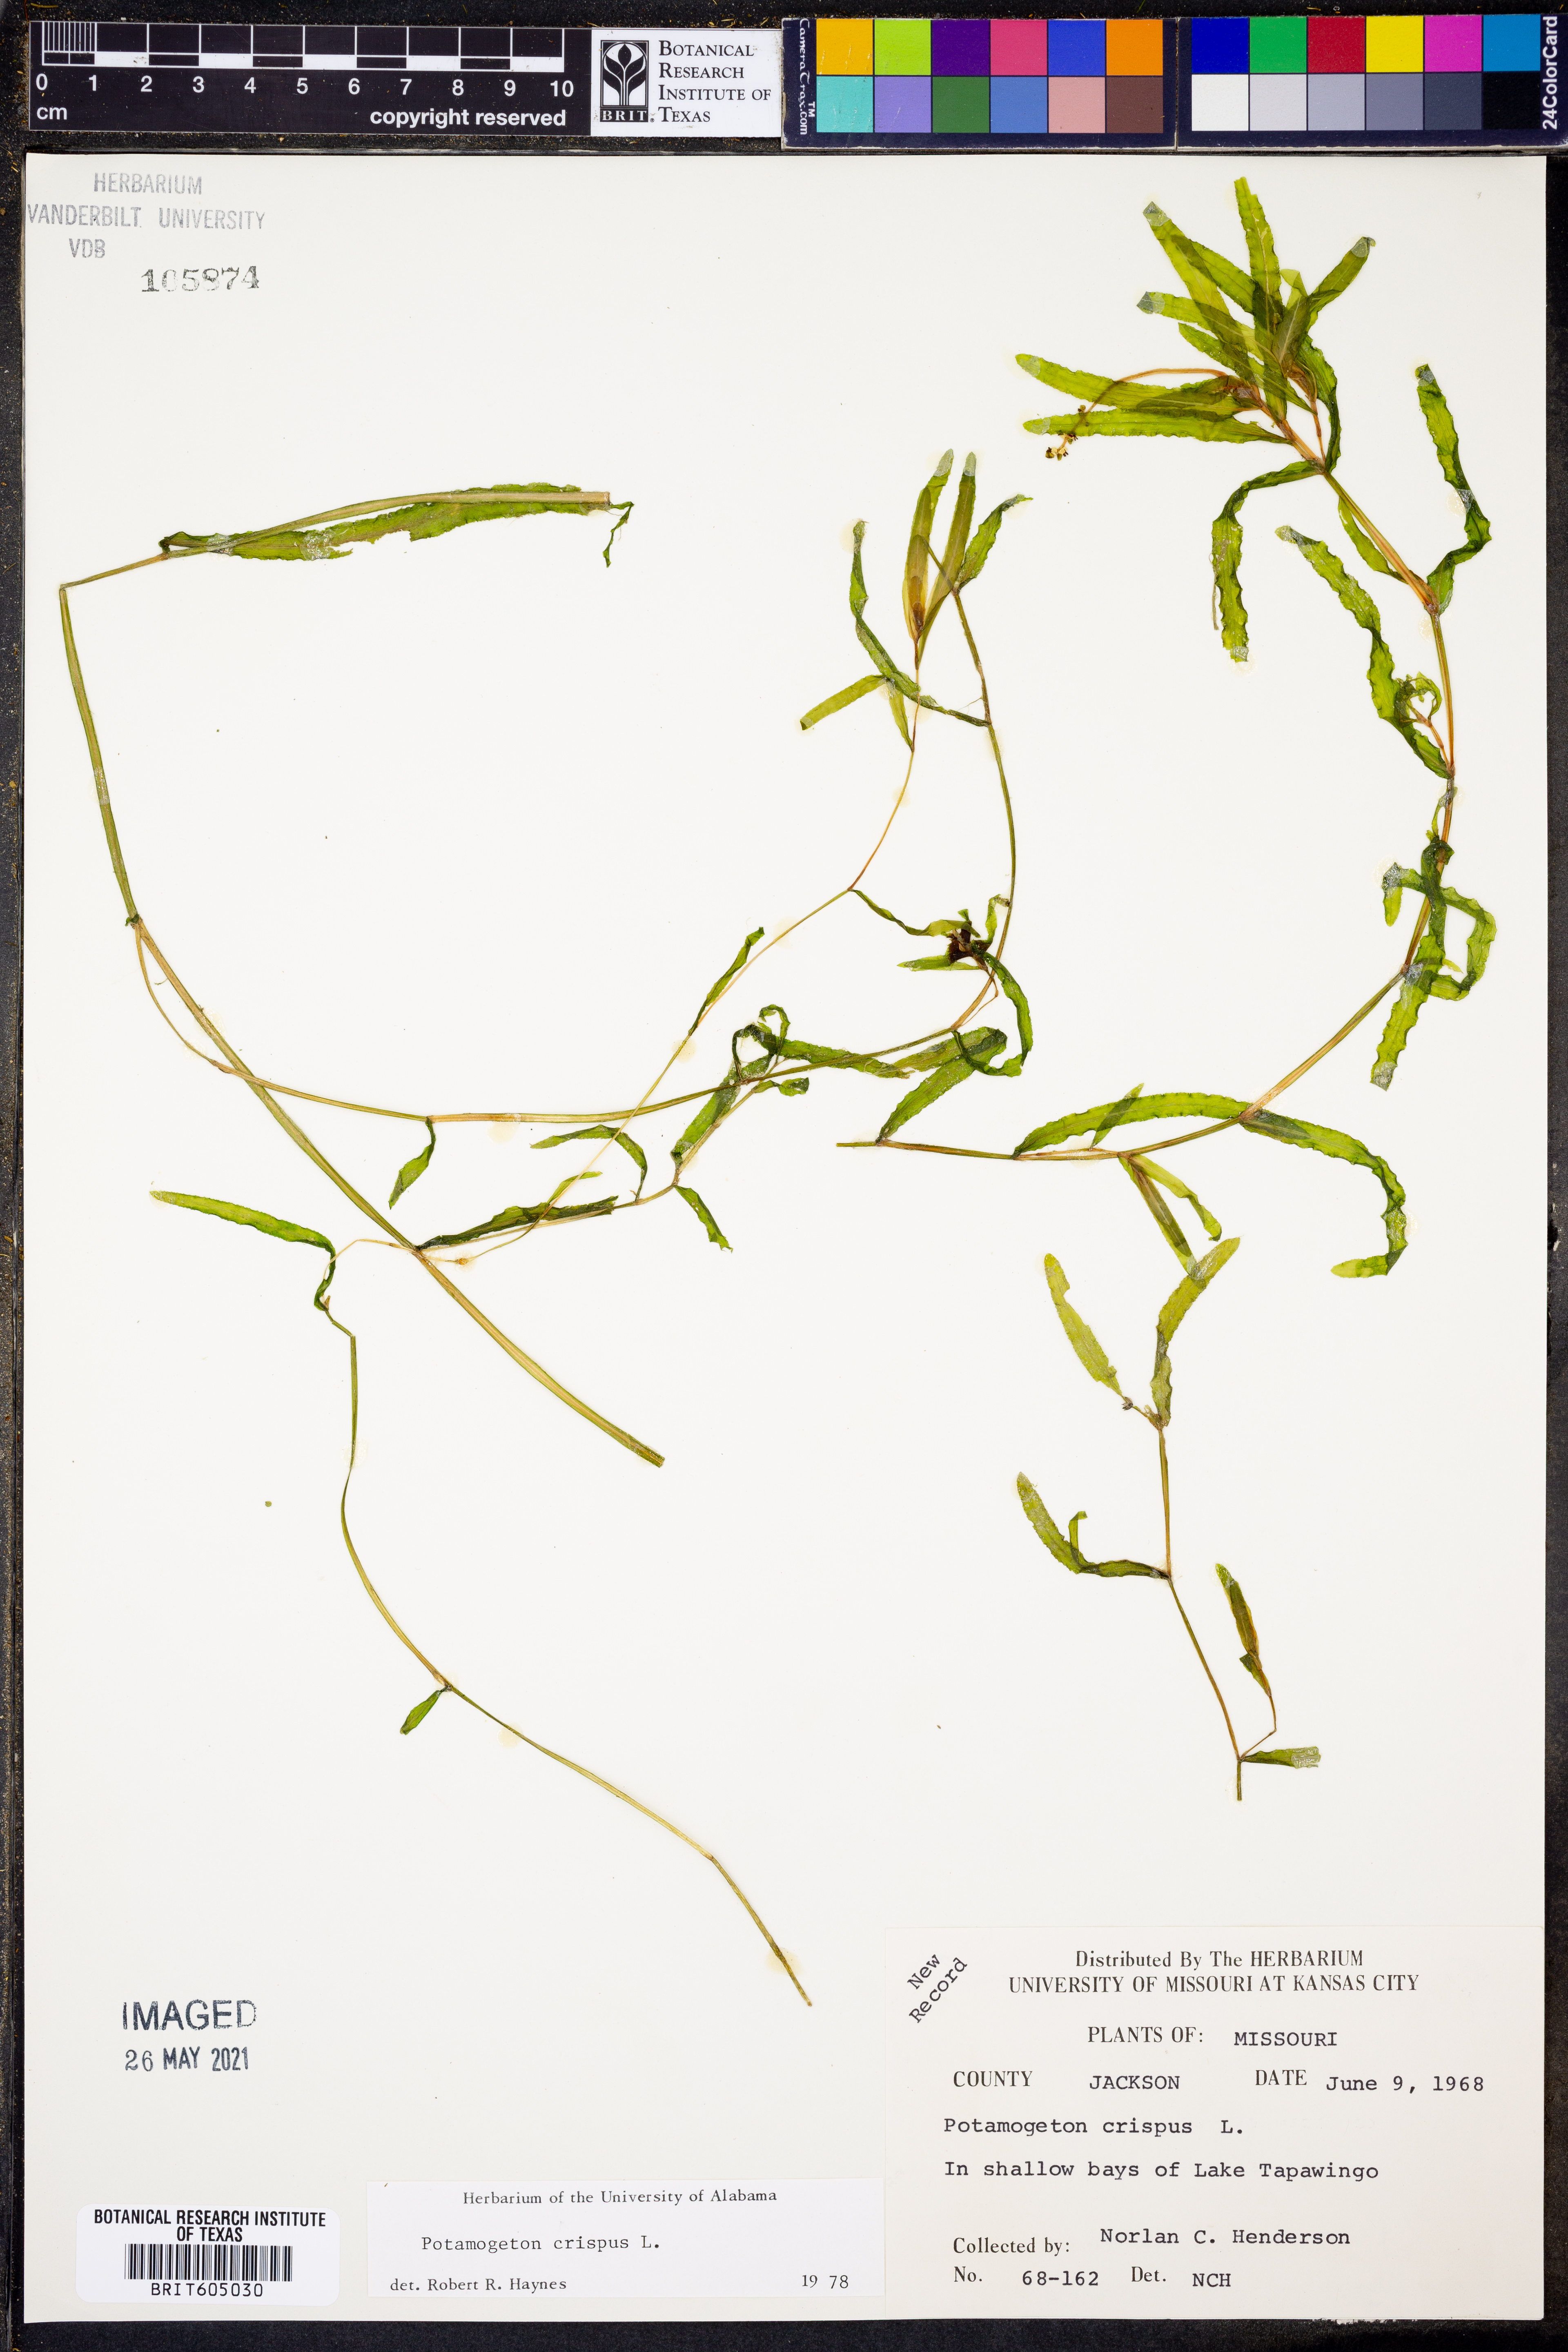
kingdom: Plantae
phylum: Tracheophyta
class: Liliopsida
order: Alismatales
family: Potamogetonaceae
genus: Potamogeton
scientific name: Potamogeton crispus
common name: Curled pondweed
